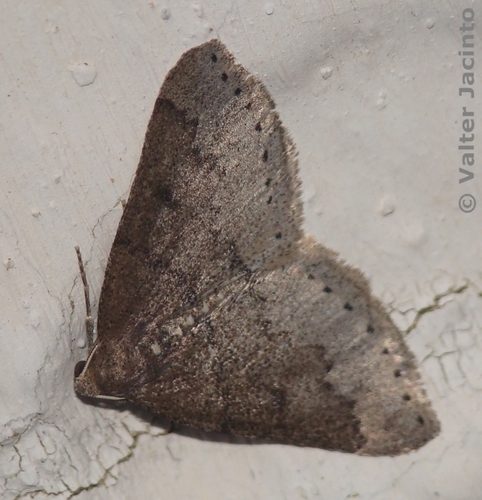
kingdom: Animalia
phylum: Arthropoda
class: Insecta
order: Lepidoptera
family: Geometridae
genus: Aleucis
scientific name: Aleucis distinctata
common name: Sloe carpet
